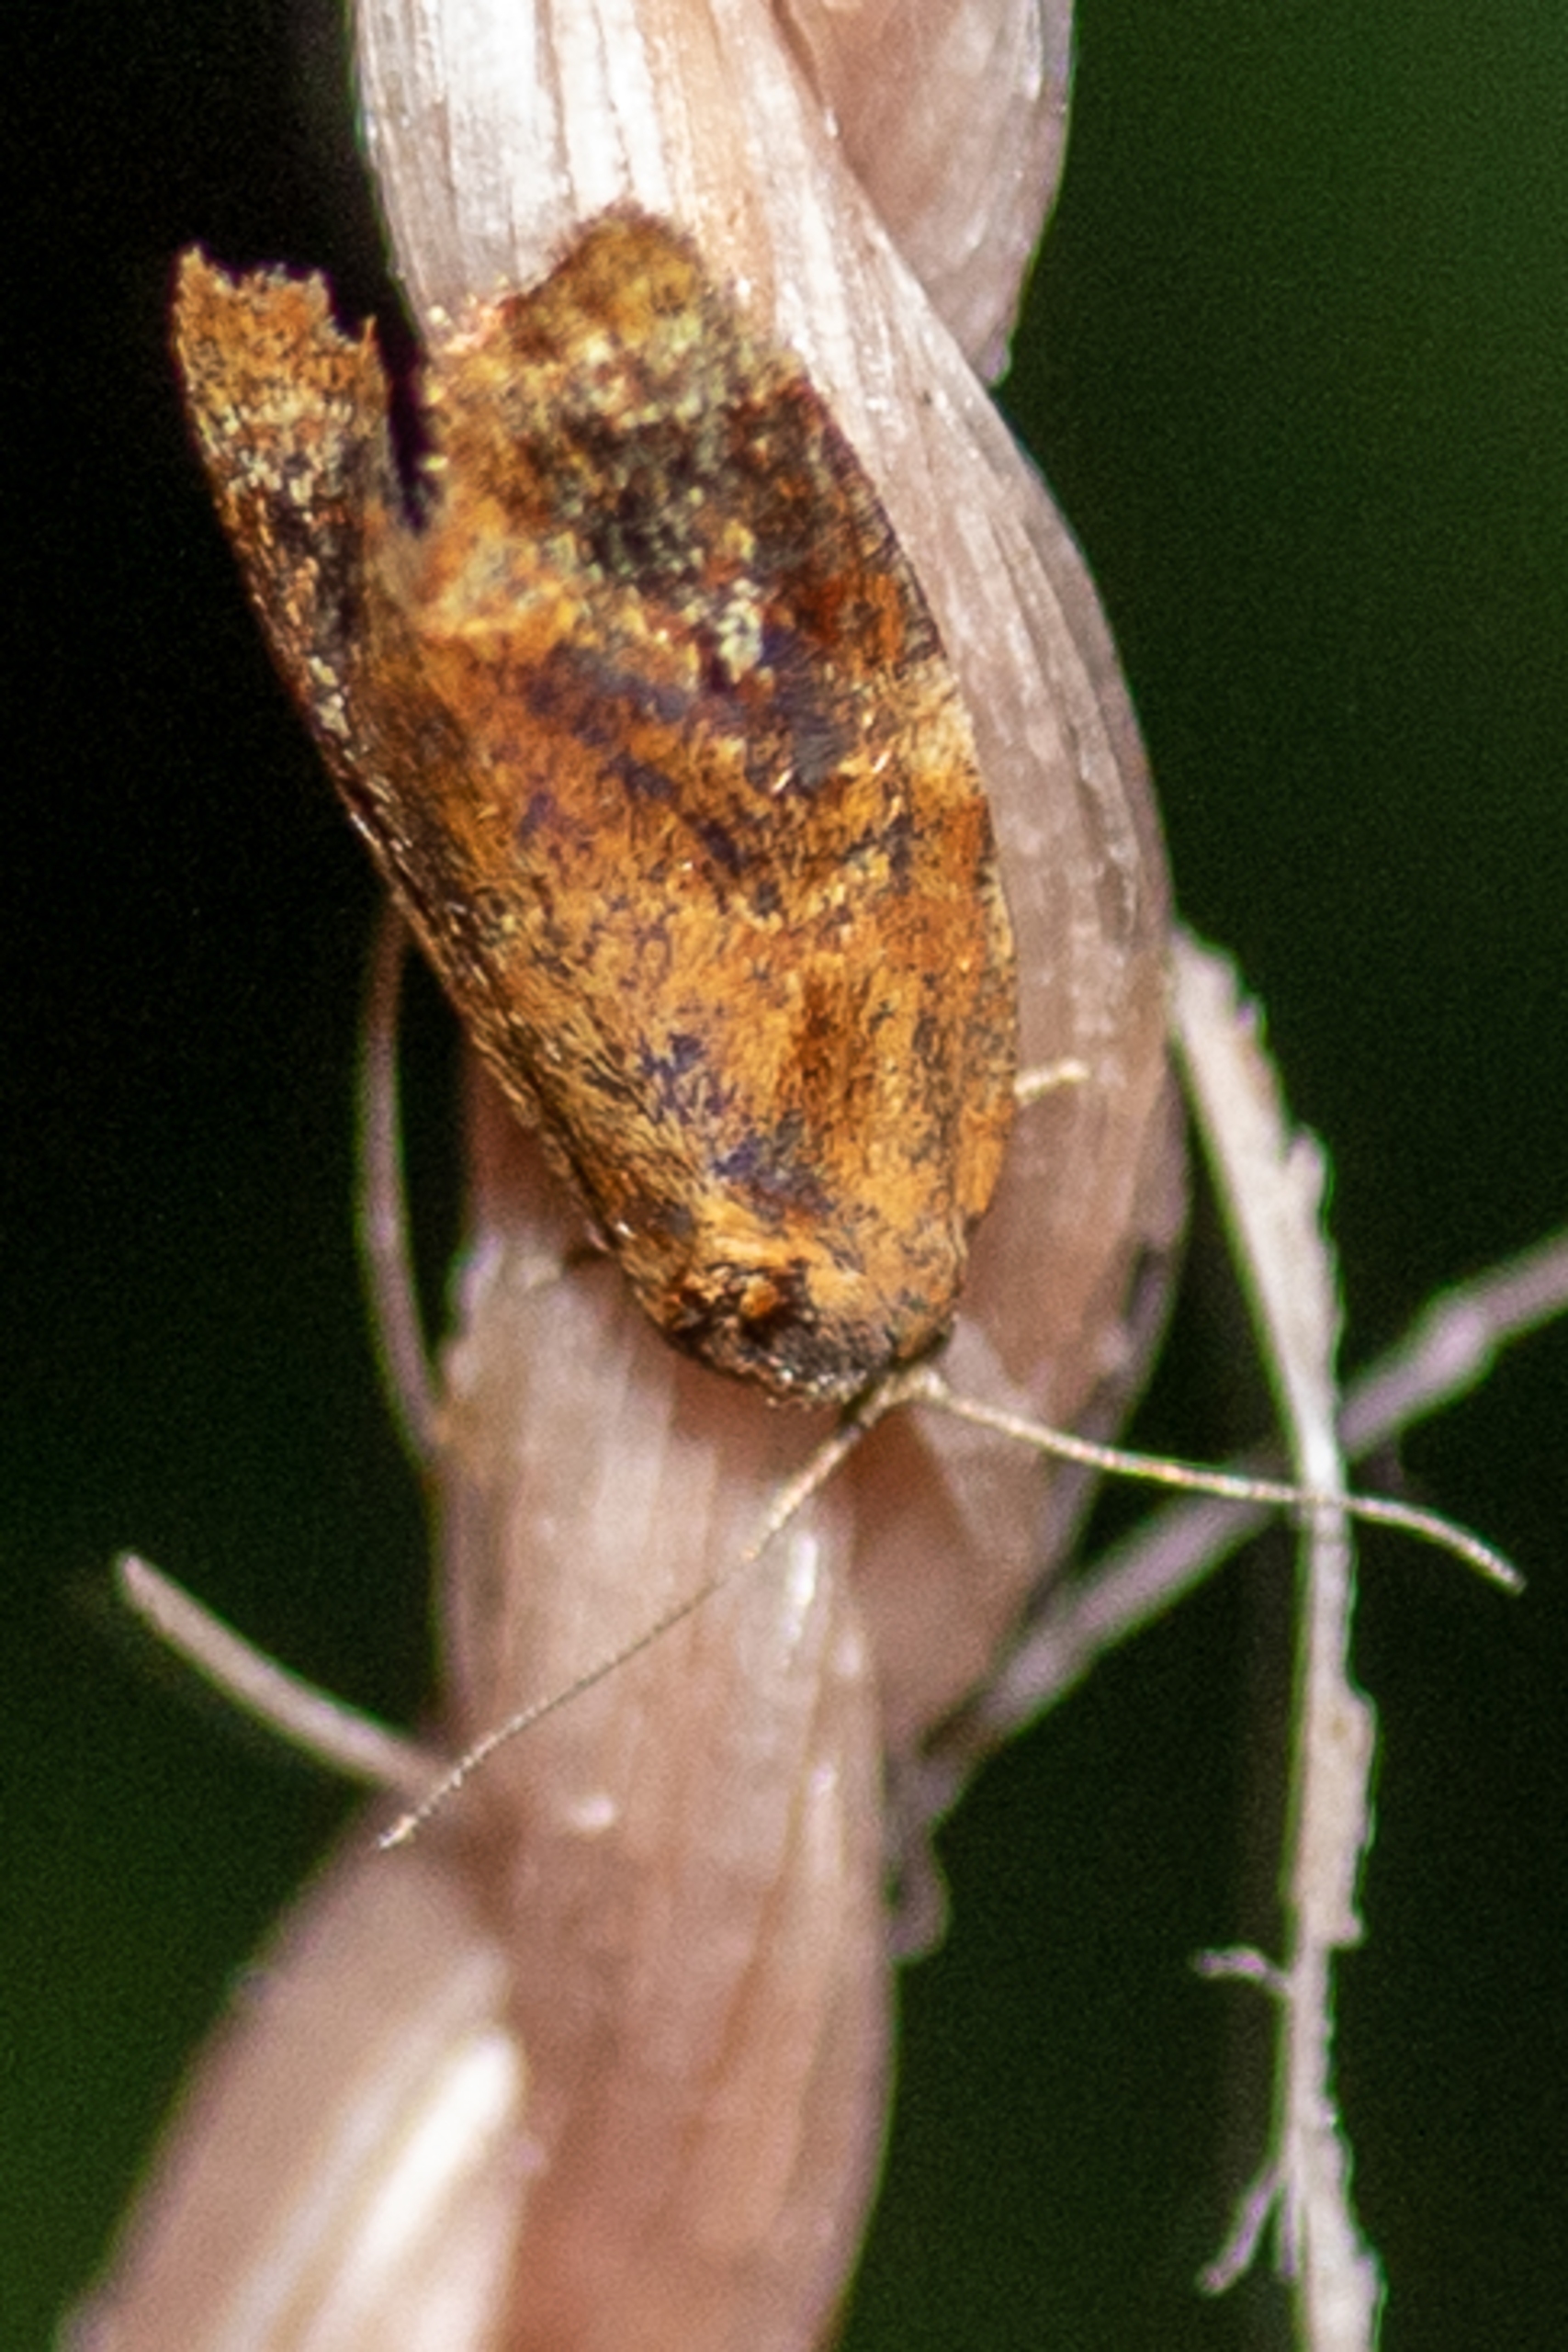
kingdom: Animalia
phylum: Arthropoda
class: Insecta
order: Lepidoptera
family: Tortricidae
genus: Ditula
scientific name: Ditula angustiorana
